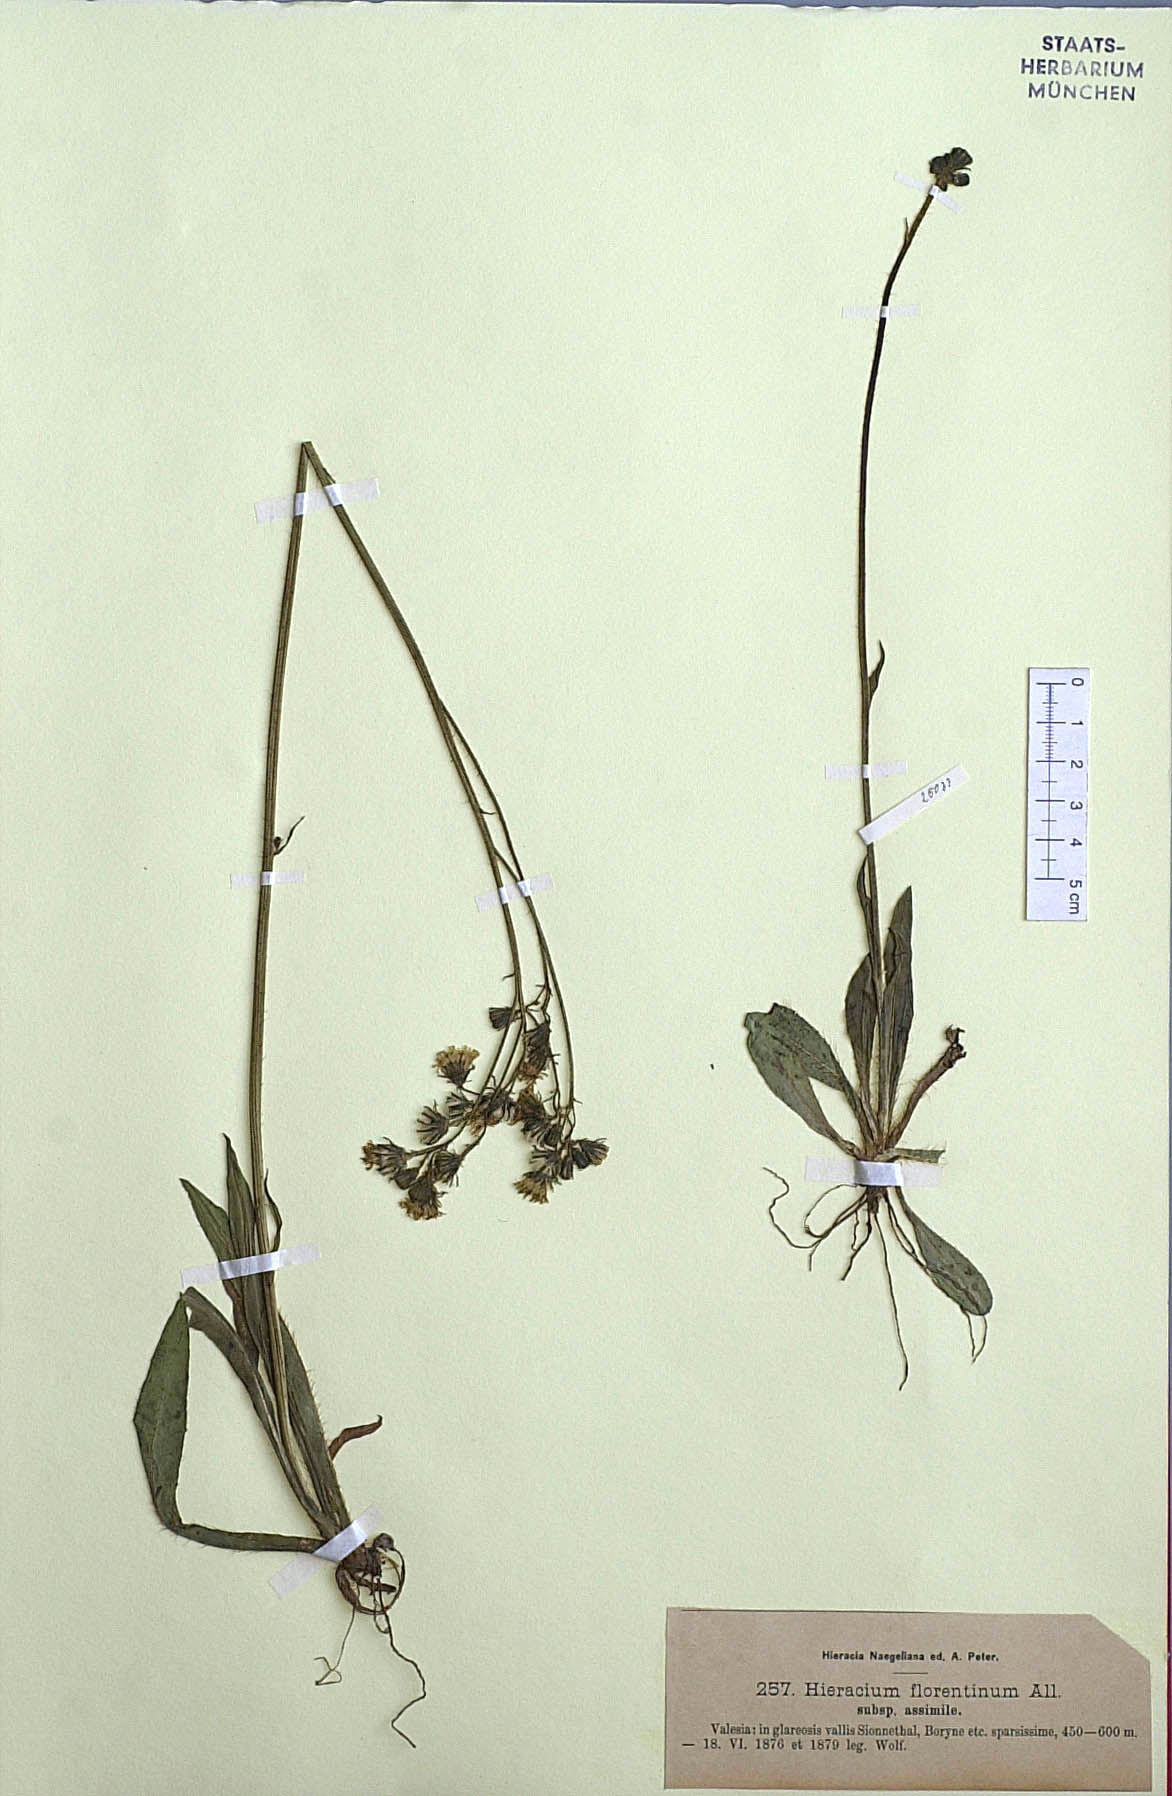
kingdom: Plantae
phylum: Tracheophyta
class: Magnoliopsida
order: Asterales
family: Asteraceae
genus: Pilosella
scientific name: Pilosella piloselloides
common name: Glaucous king-devil
